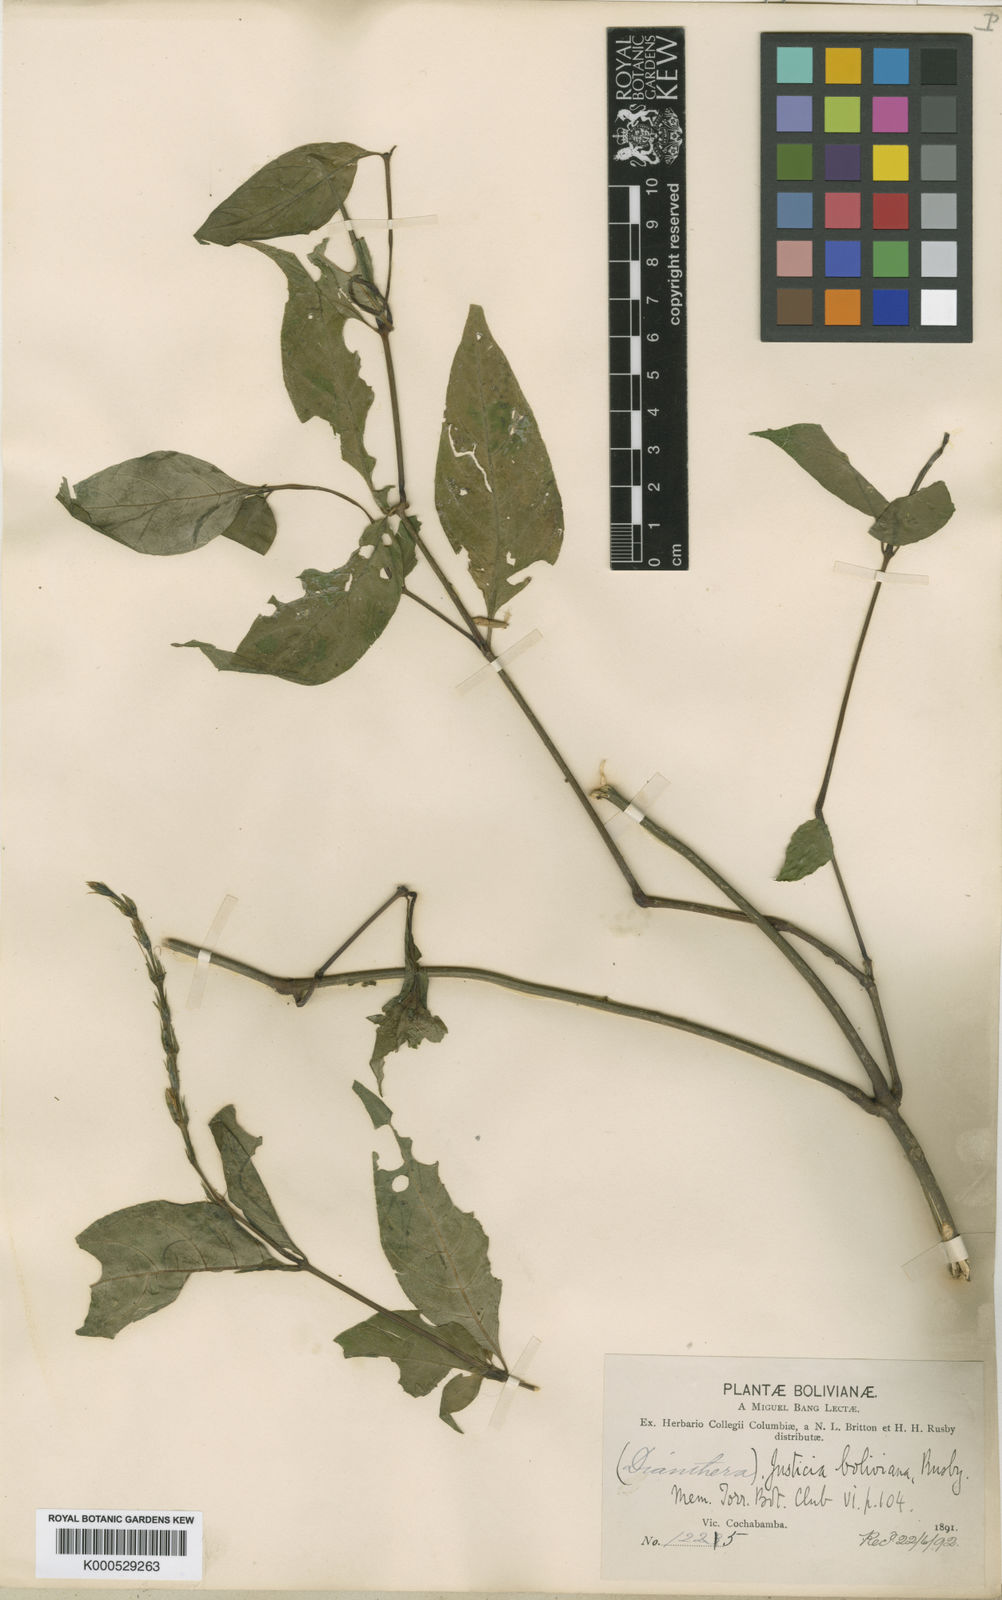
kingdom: Plantae
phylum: Tracheophyta
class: Magnoliopsida
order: Lamiales
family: Acanthaceae
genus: Justicia
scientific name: Justicia boliviana
